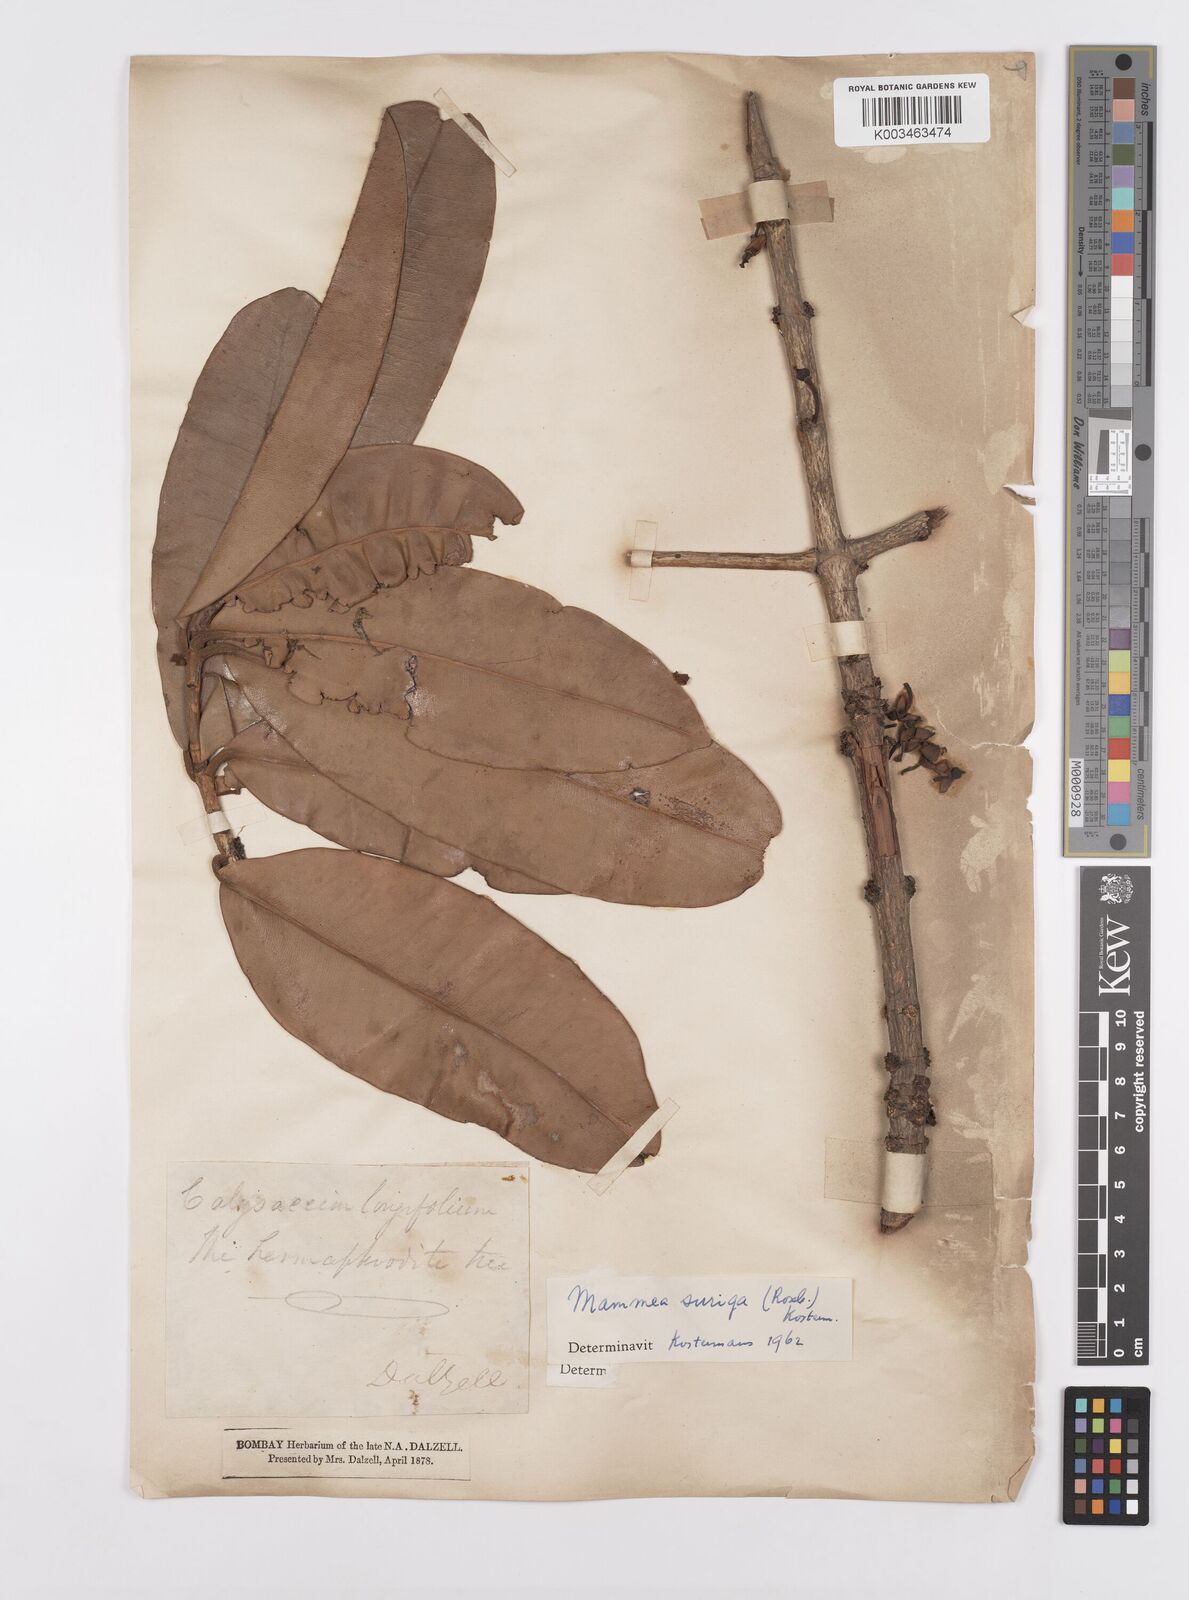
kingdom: Plantae
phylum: Tracheophyta
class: Magnoliopsida
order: Malpighiales
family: Calophyllaceae
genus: Mammea
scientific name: Mammea suriga
